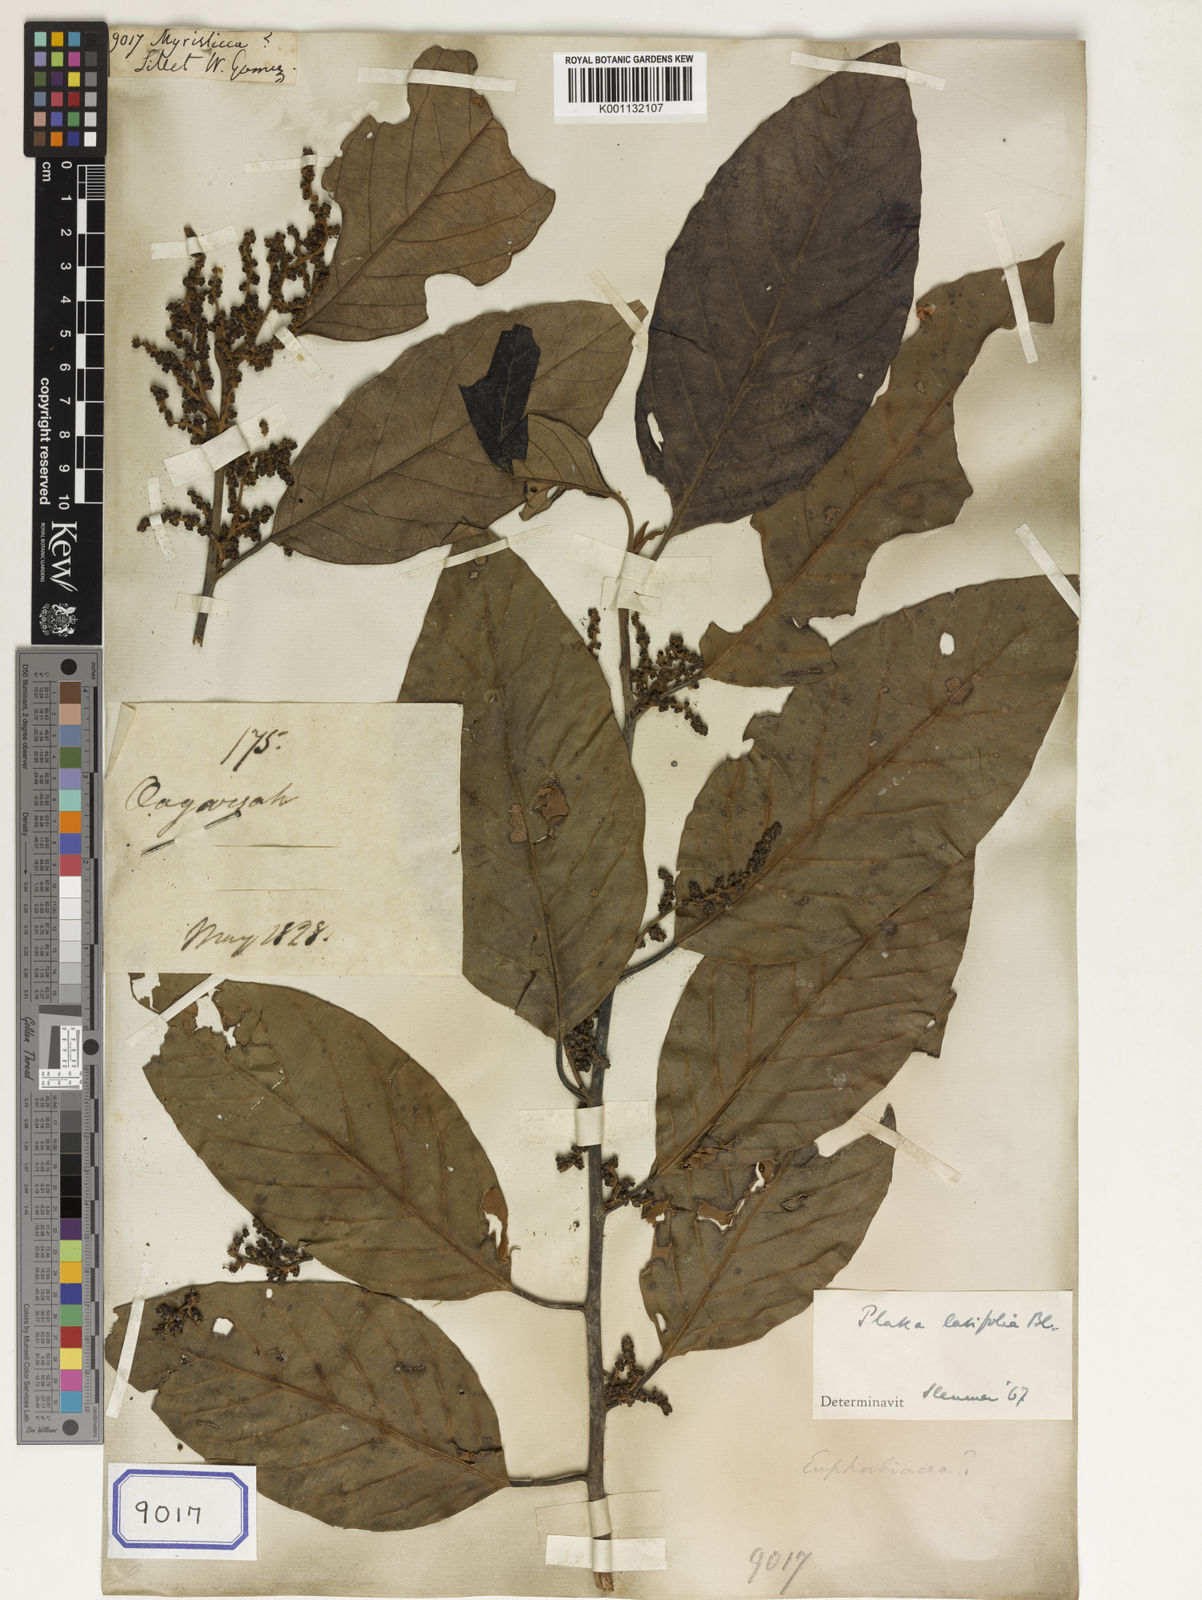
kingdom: Plantae
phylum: Tracheophyta
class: Magnoliopsida
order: Magnoliales
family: Myristicaceae
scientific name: Myristicaceae
